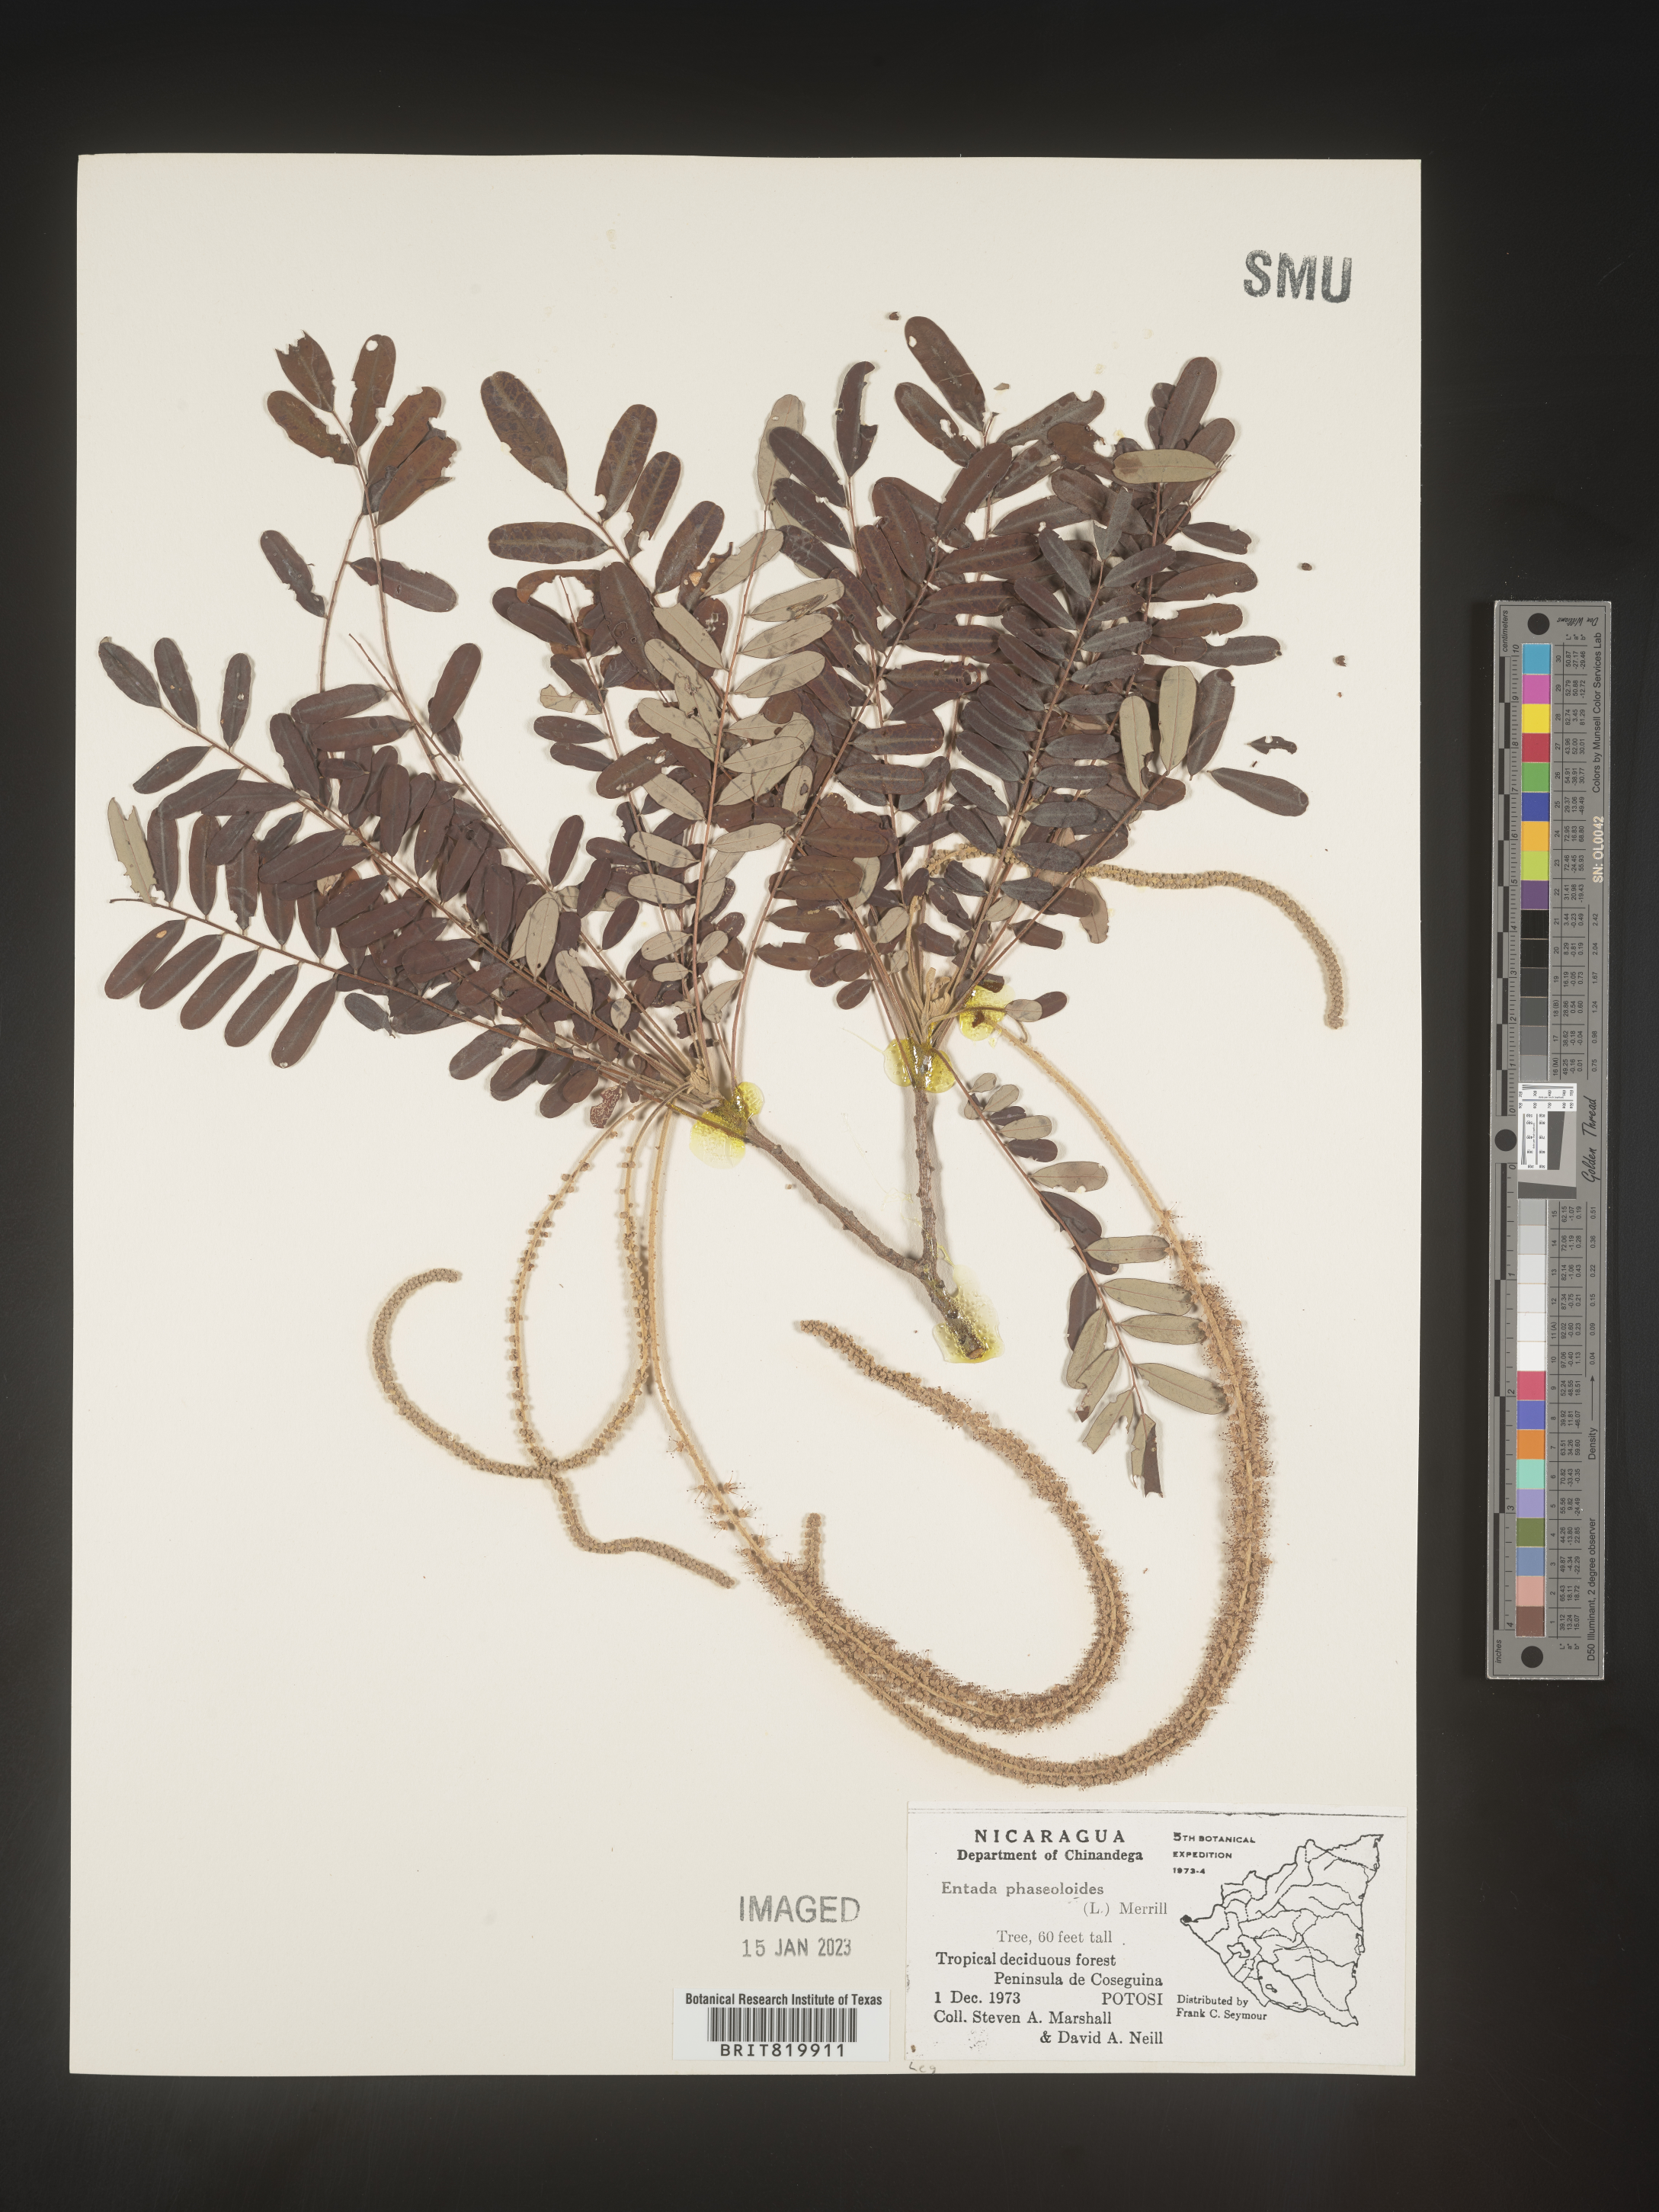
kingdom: Plantae
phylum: Tracheophyta
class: Magnoliopsida
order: Fabales
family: Fabaceae
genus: Entada
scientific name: Entada
